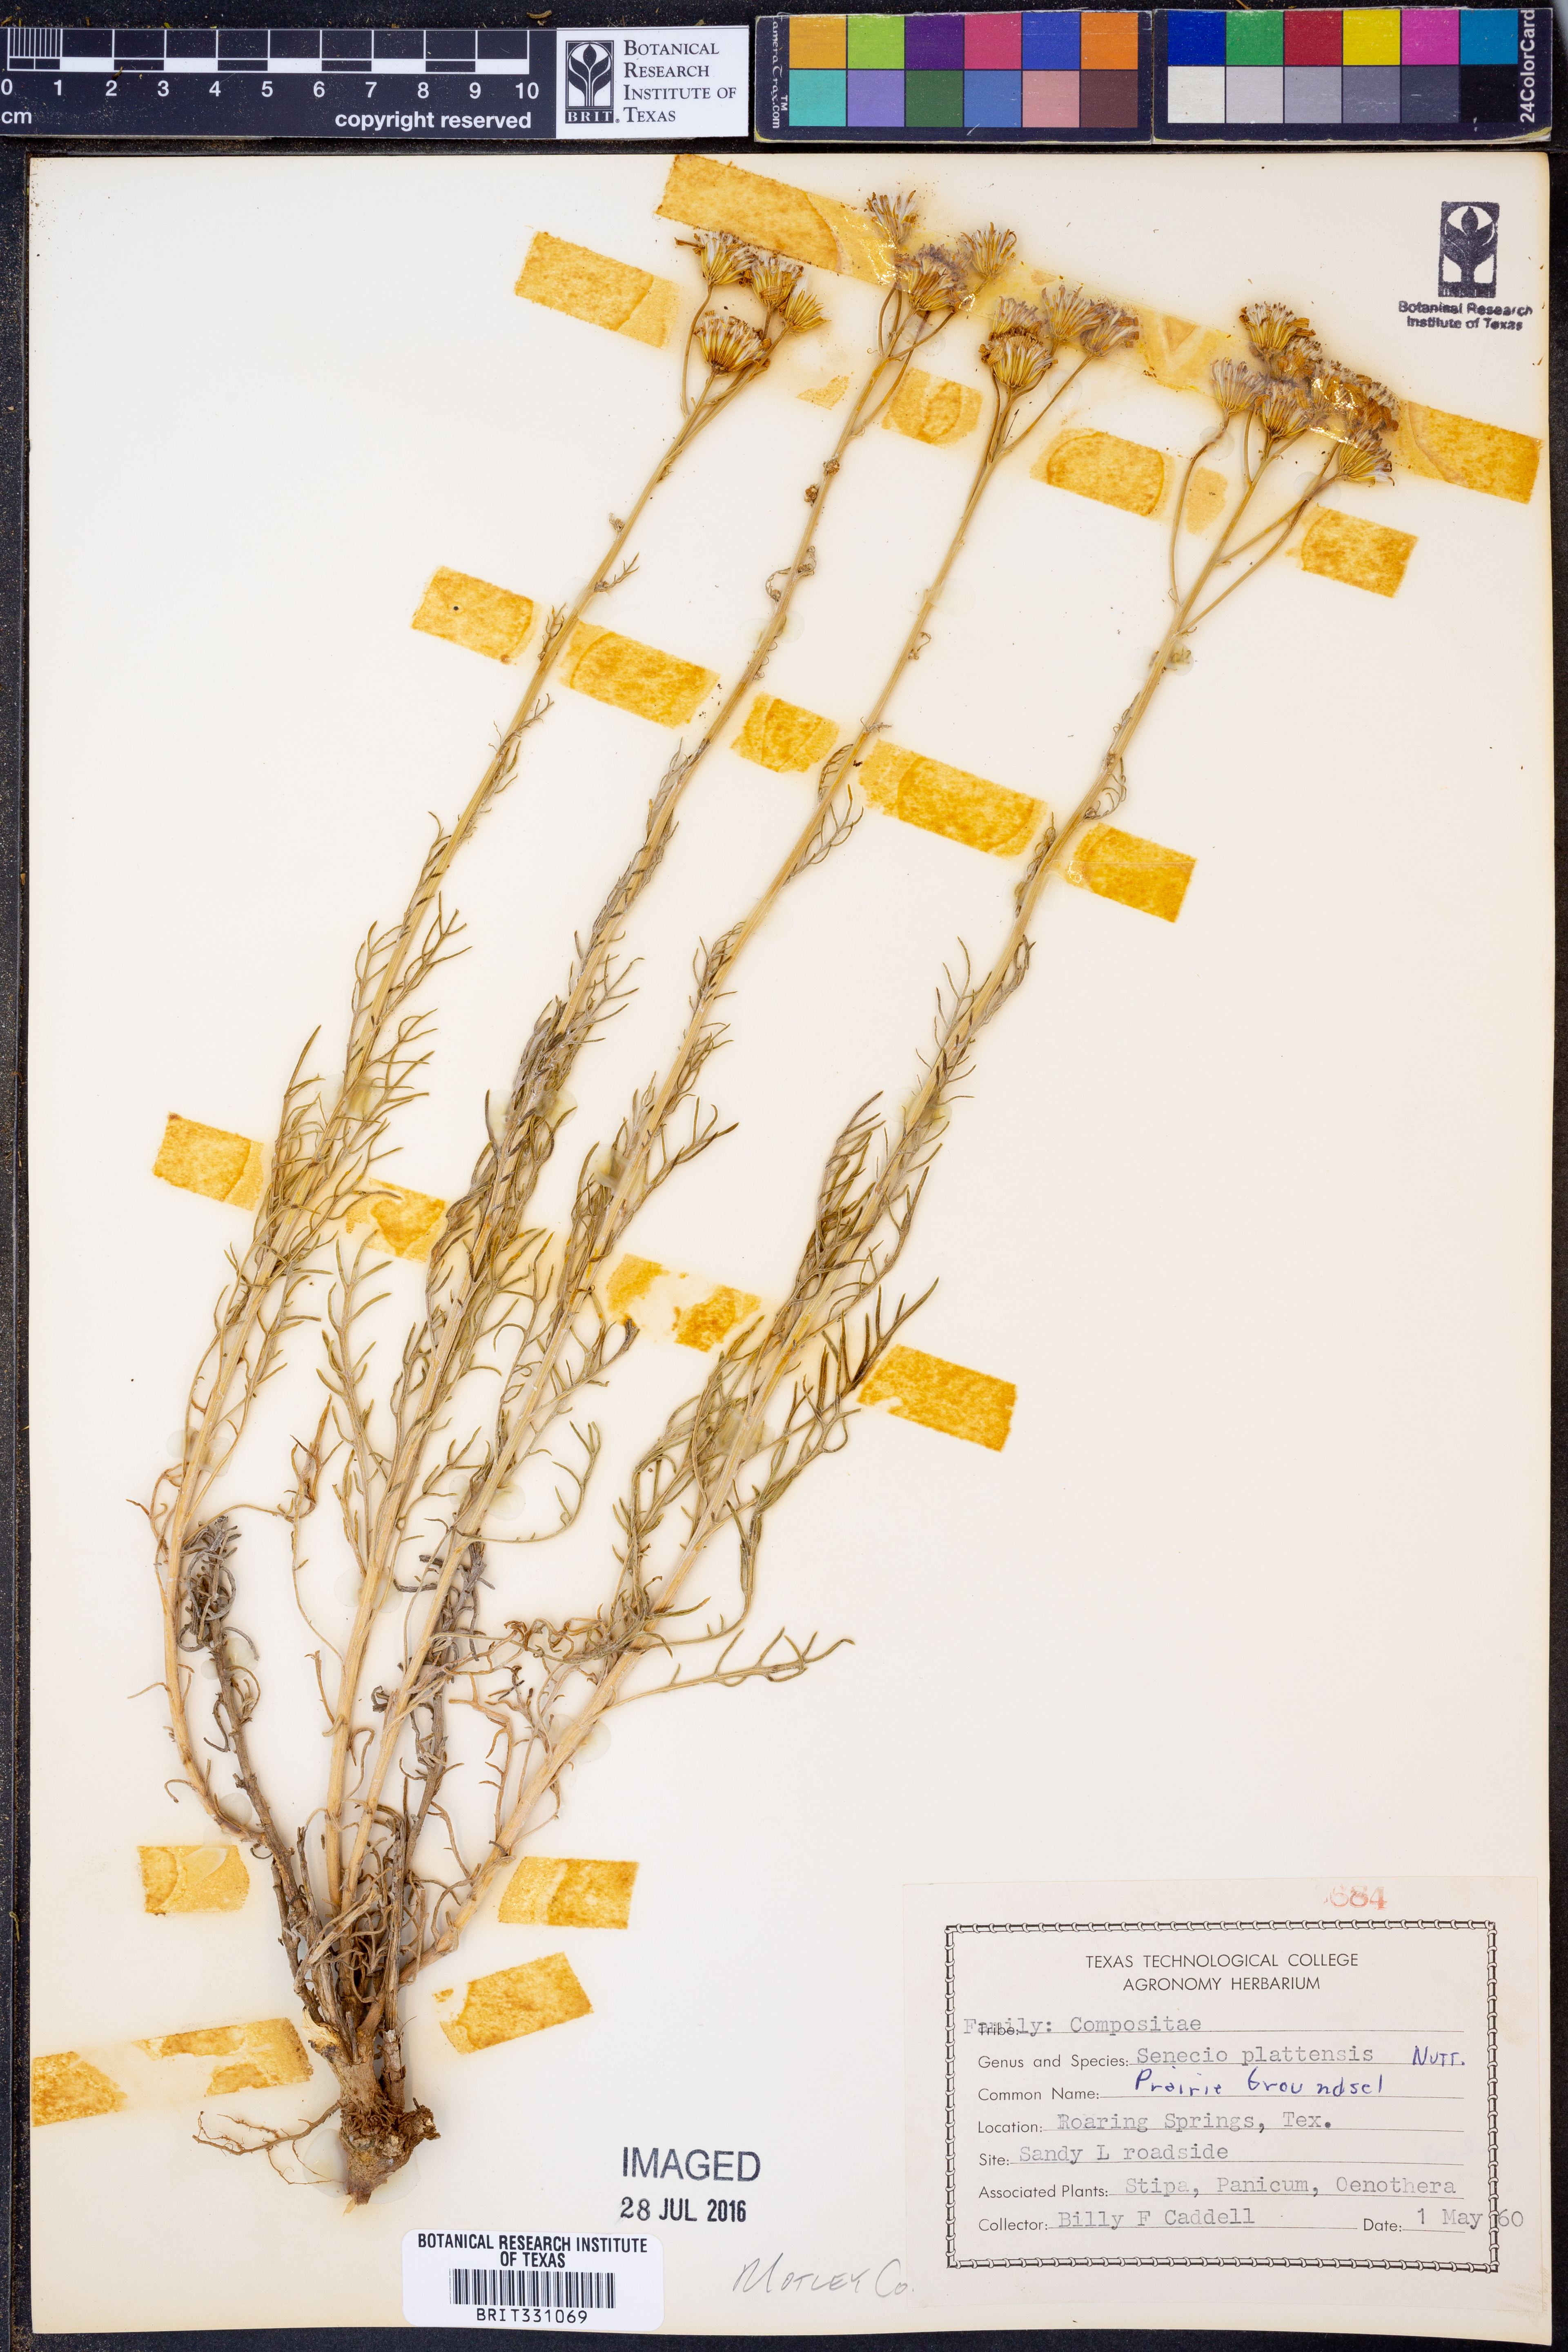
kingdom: Plantae
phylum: Tracheophyta
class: Magnoliopsida
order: Asterales
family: Asteraceae
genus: Packera
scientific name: Packera plattensis
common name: Prairie groundsel
